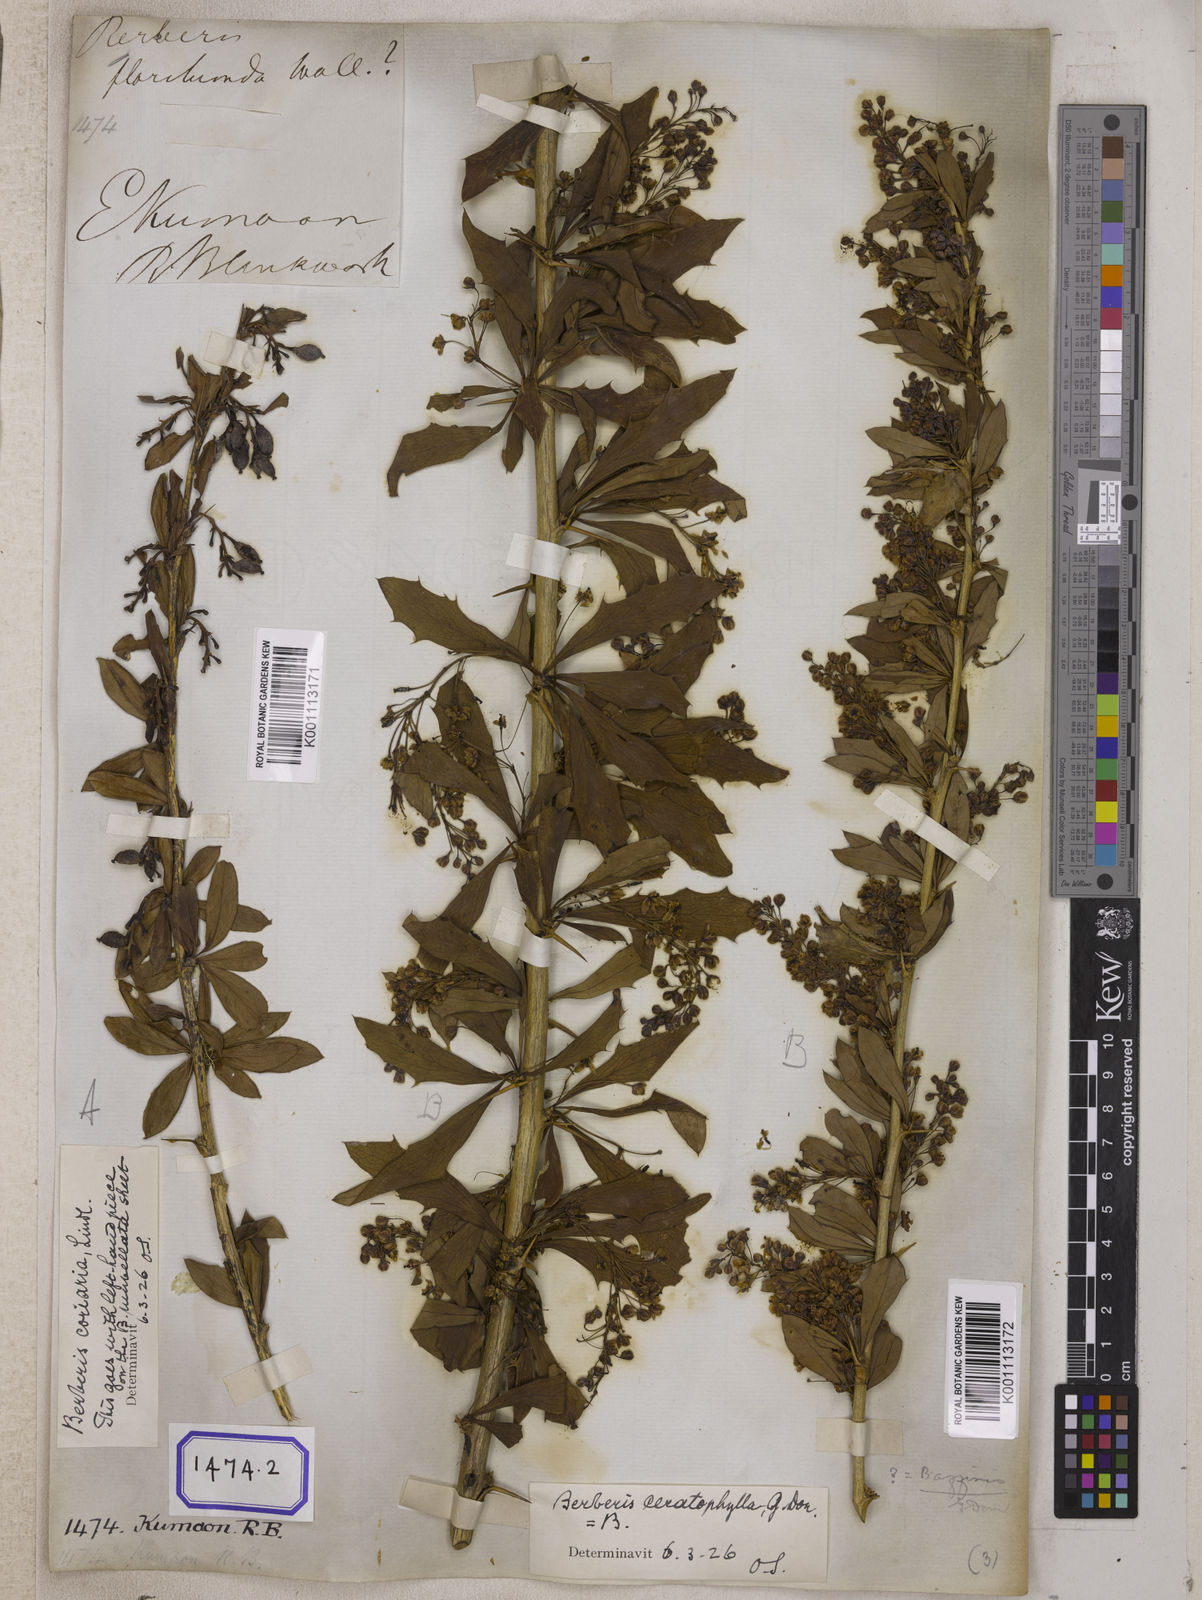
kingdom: Plantae
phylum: Tracheophyta
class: Magnoliopsida
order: Ranunculales
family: Berberidaceae
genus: Berberis
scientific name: Berberis aristata
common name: Indian barberry
